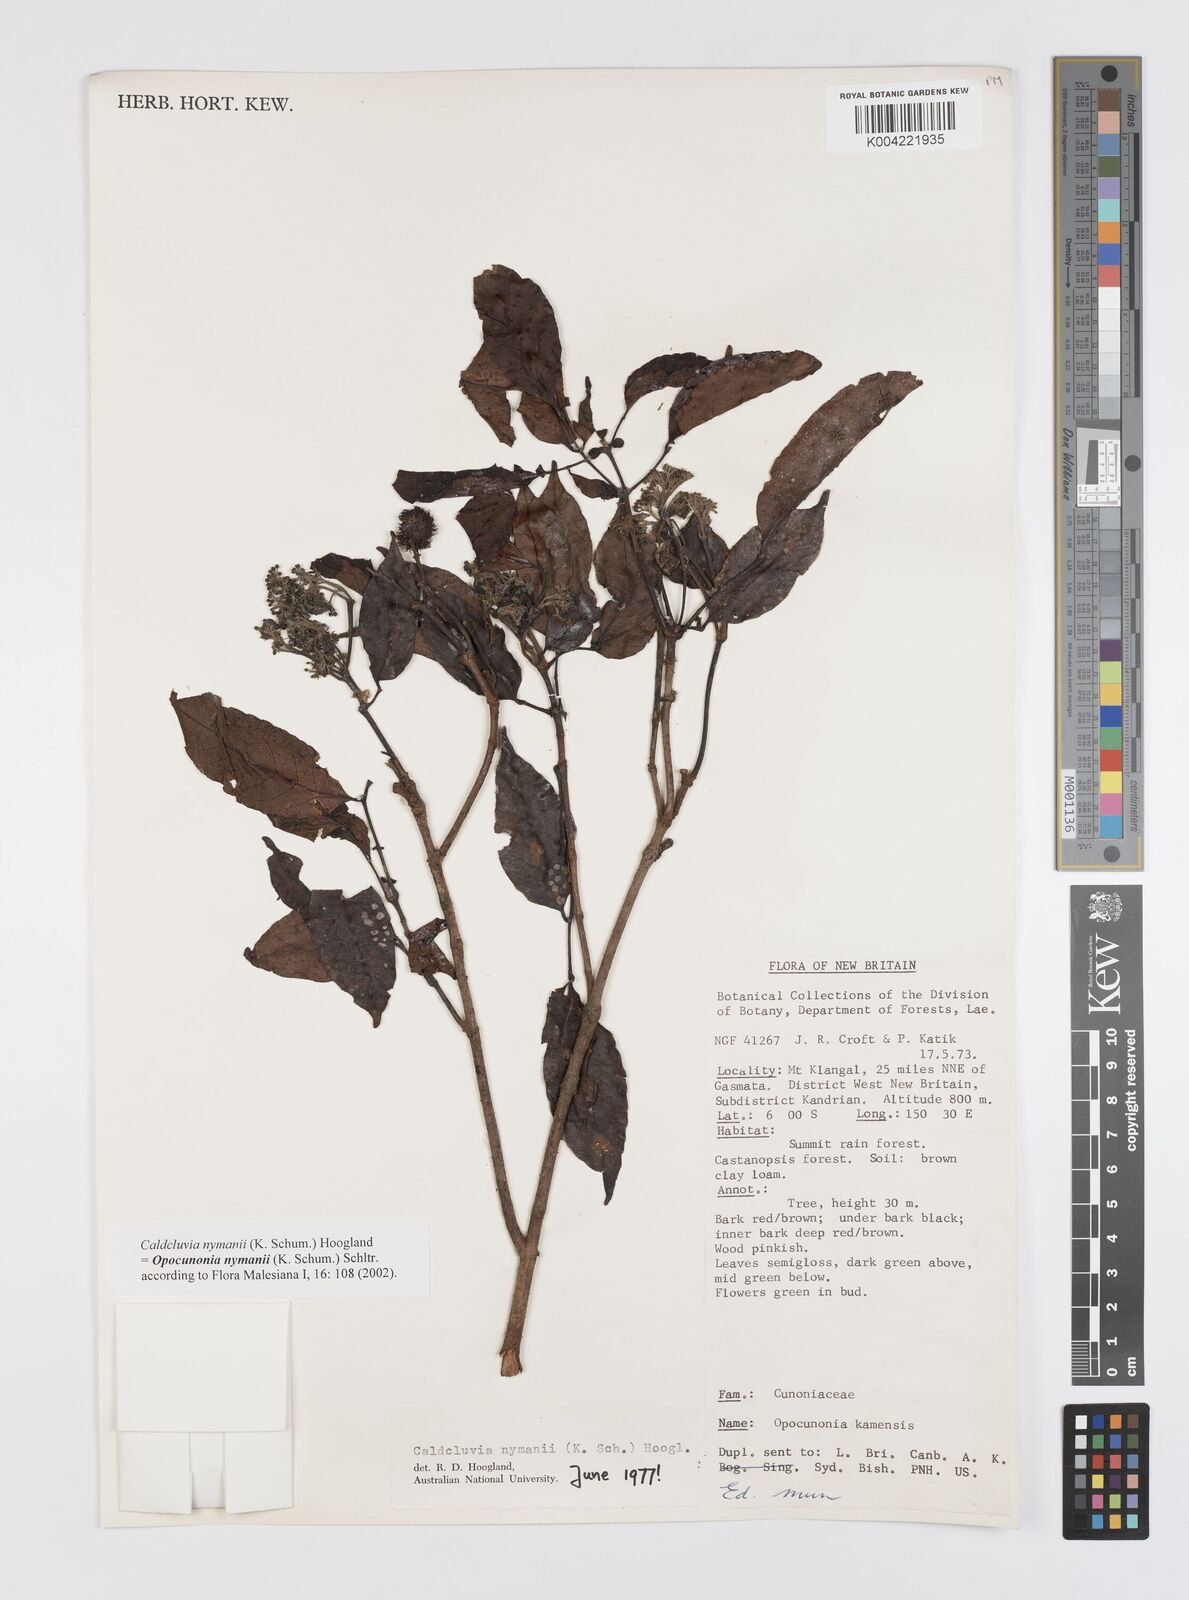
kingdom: Plantae
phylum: Tracheophyta
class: Magnoliopsida
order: Oxalidales
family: Cunoniaceae
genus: Opocunonia
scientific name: Opocunonia nymanii
